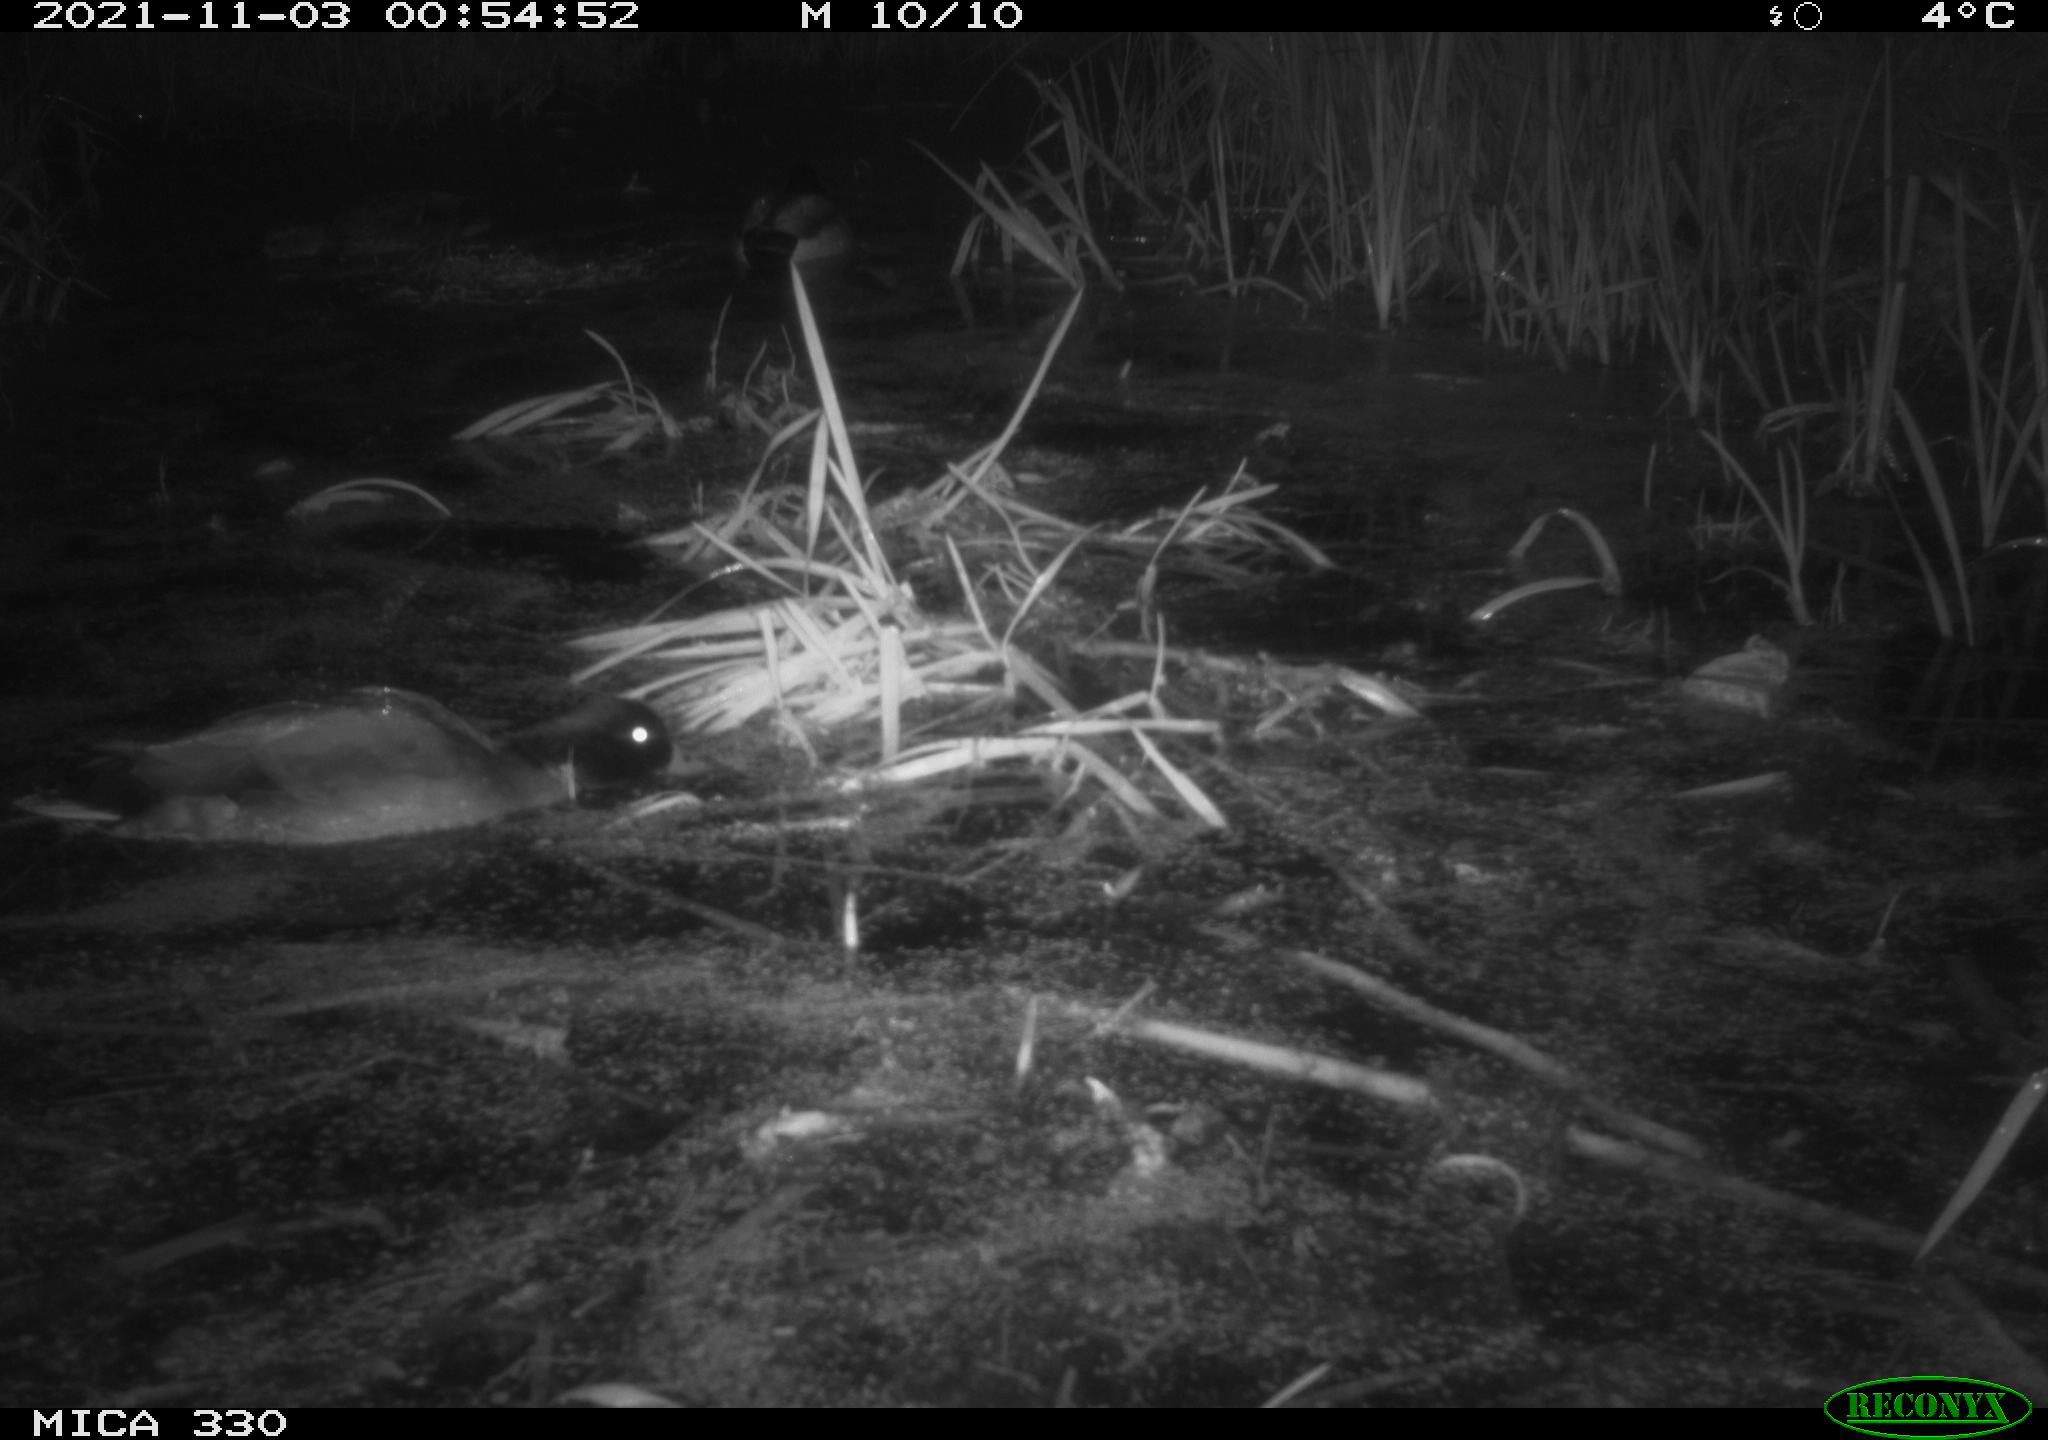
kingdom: Animalia
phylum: Chordata
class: Aves
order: Anseriformes
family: Anatidae
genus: Anas
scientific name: Anas platyrhynchos
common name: Mallard
